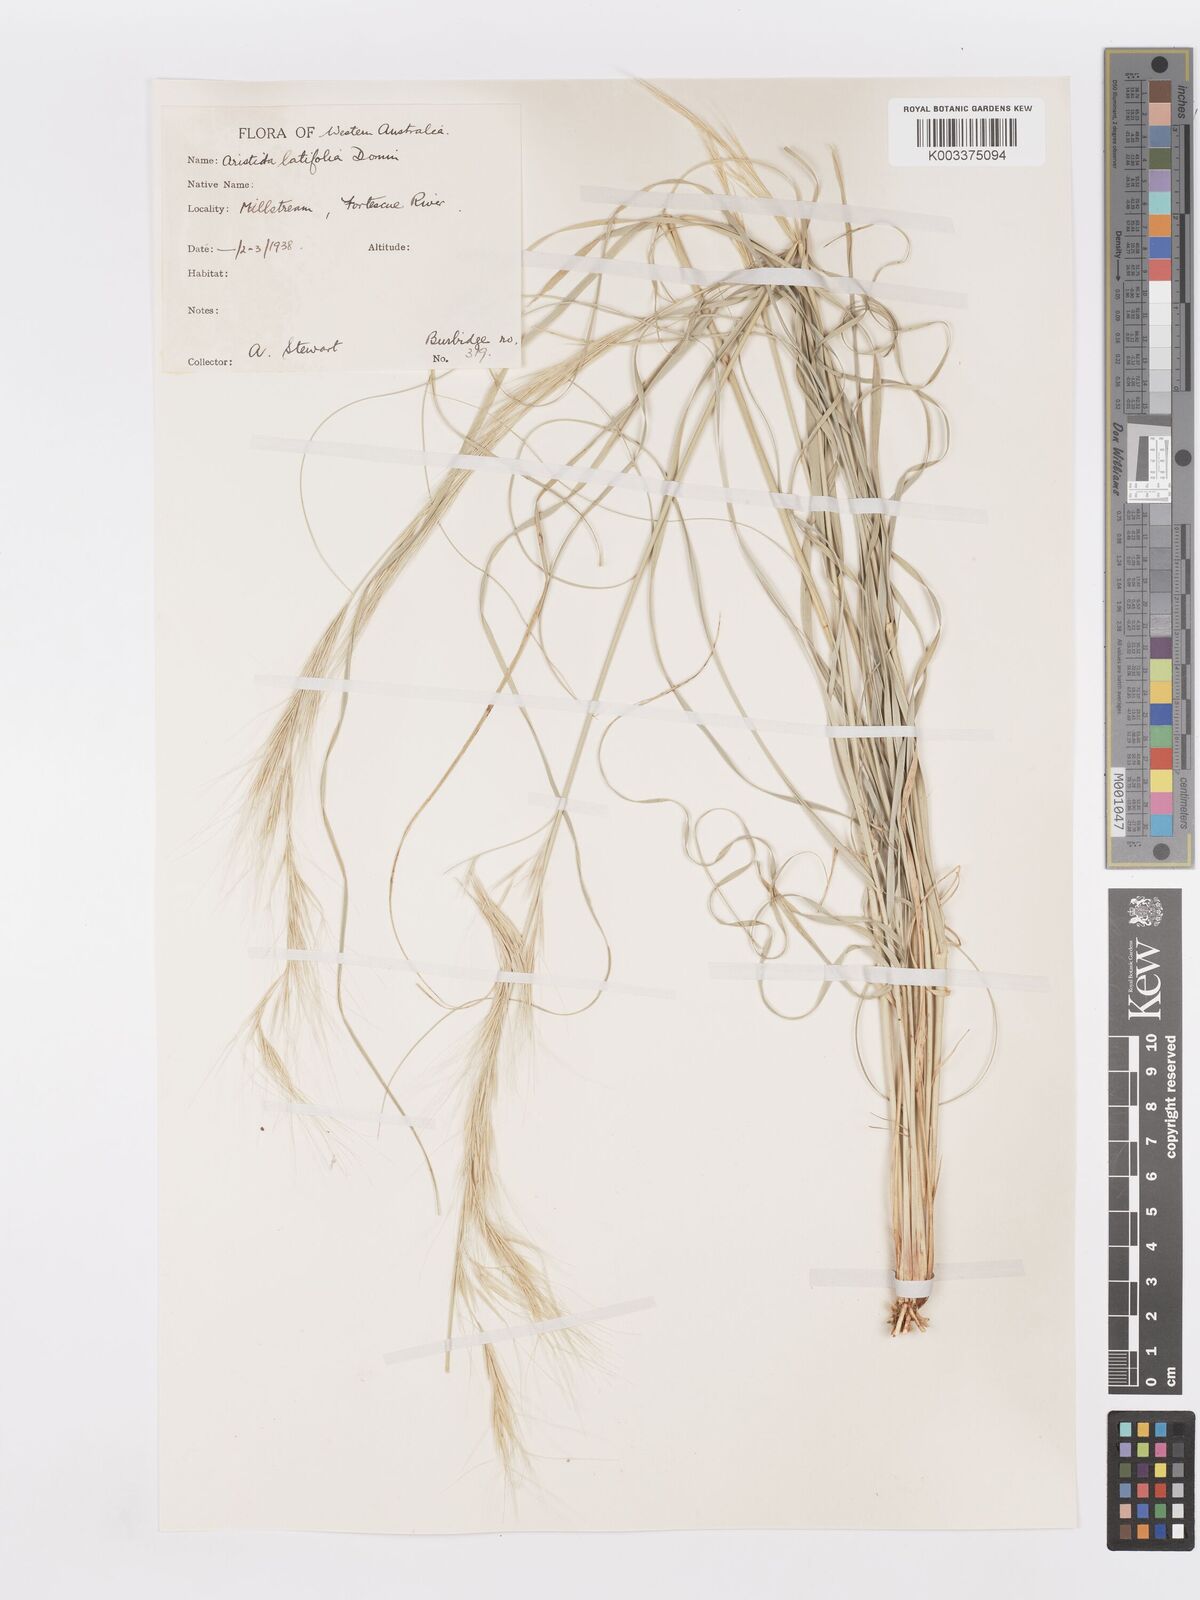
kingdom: Plantae
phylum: Tracheophyta
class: Liliopsida
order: Poales
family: Poaceae
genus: Aristida
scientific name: Aristida latifolia
